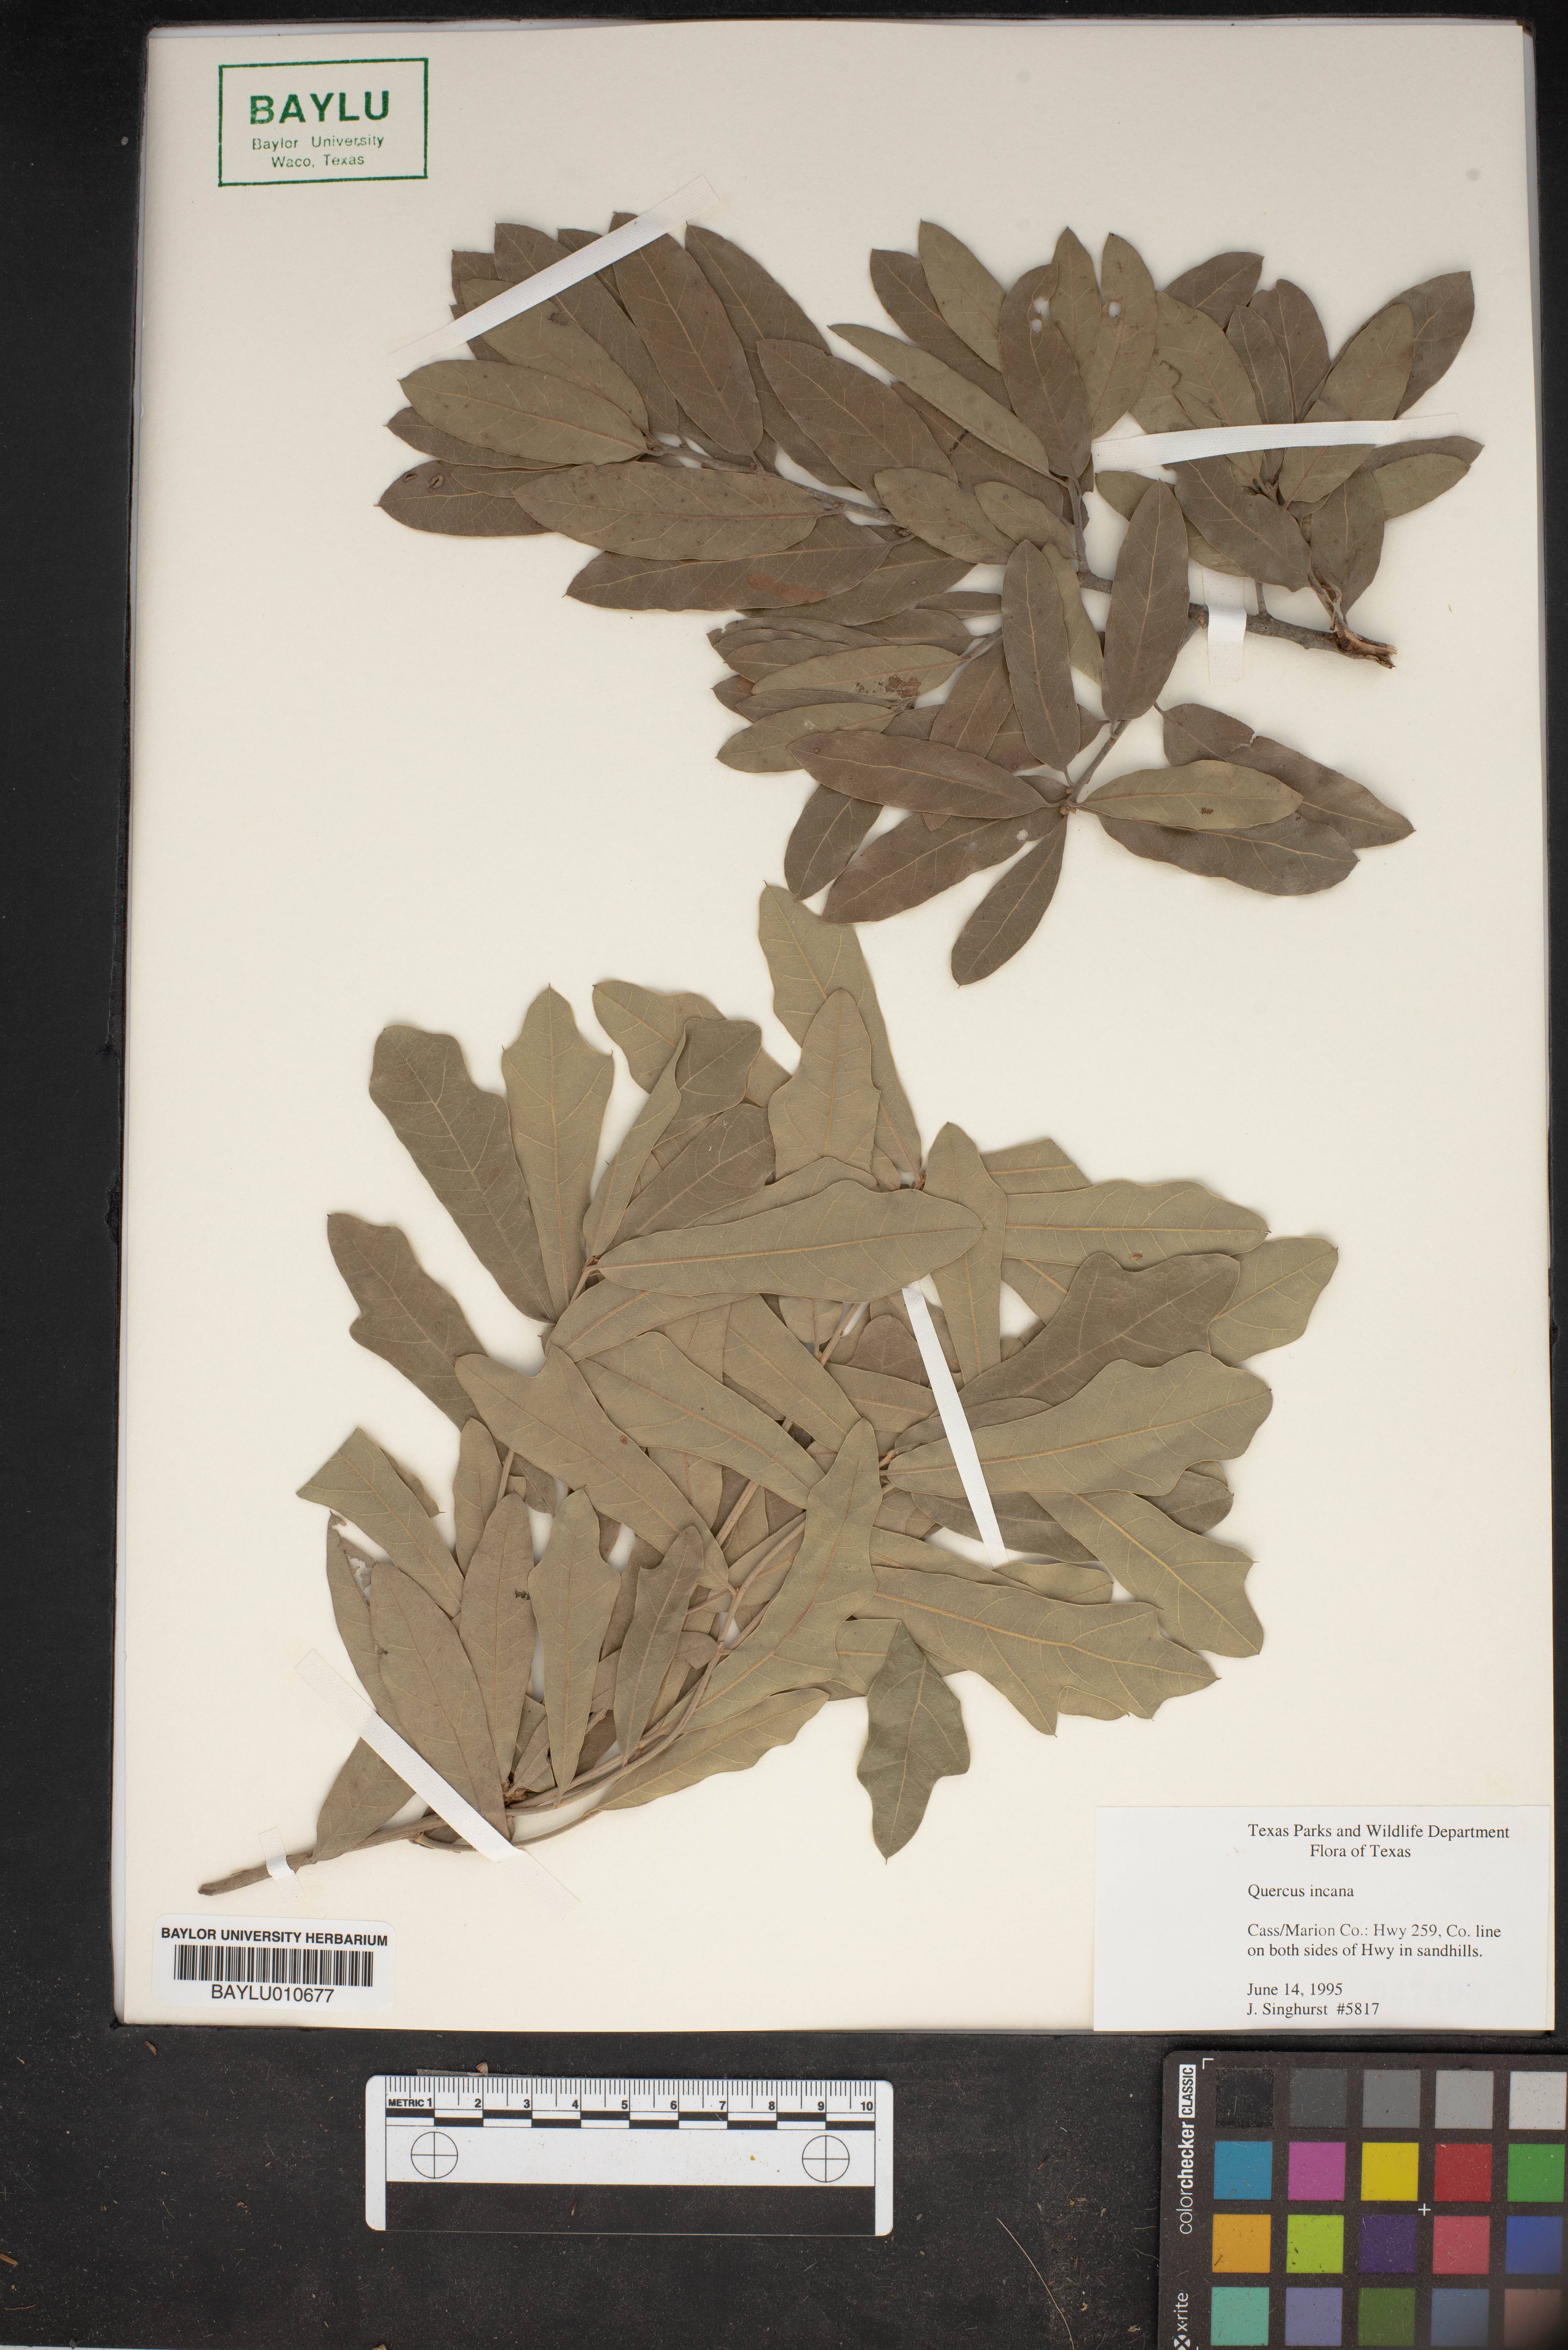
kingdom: Plantae
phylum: Tracheophyta
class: Magnoliopsida
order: Fagales
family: Fagaceae
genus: Quercus
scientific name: Quercus incana
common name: Bluejack oak
